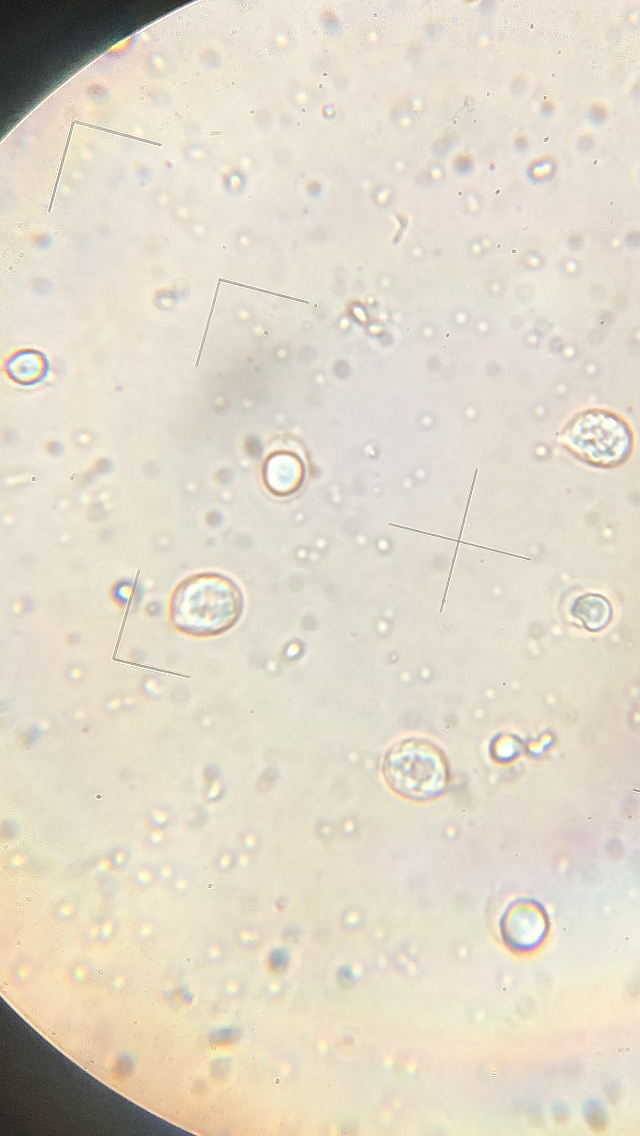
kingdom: Fungi
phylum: Basidiomycota
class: Agaricomycetes
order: Agaricales
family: Mycenaceae
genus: Mycena
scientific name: Mycena inclinata
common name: nikkende huesvamp
